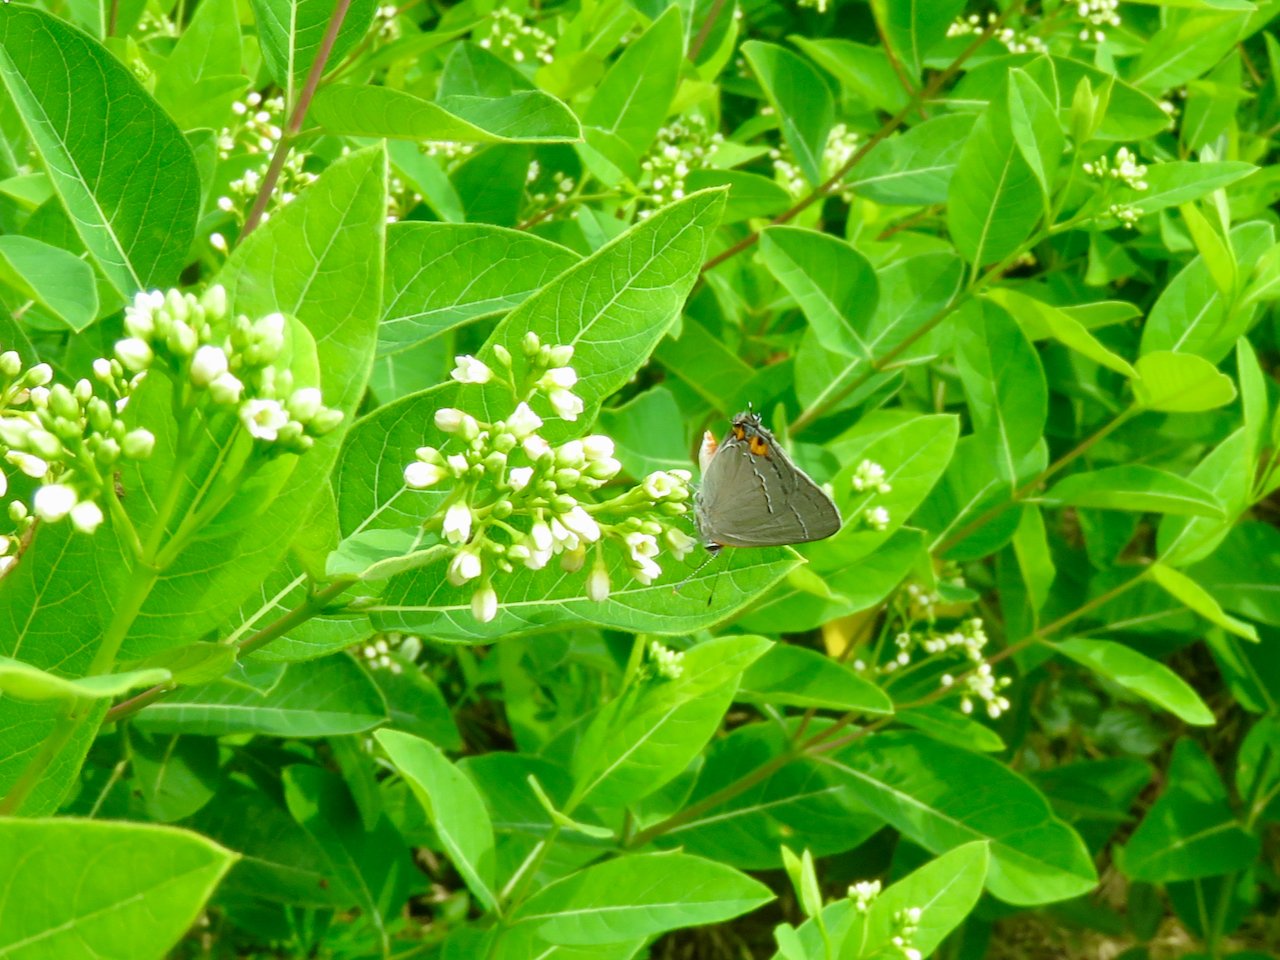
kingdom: Animalia
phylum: Arthropoda
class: Insecta
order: Lepidoptera
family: Lycaenidae
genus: Strymon
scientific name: Strymon melinus
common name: Gray Hairstreak
